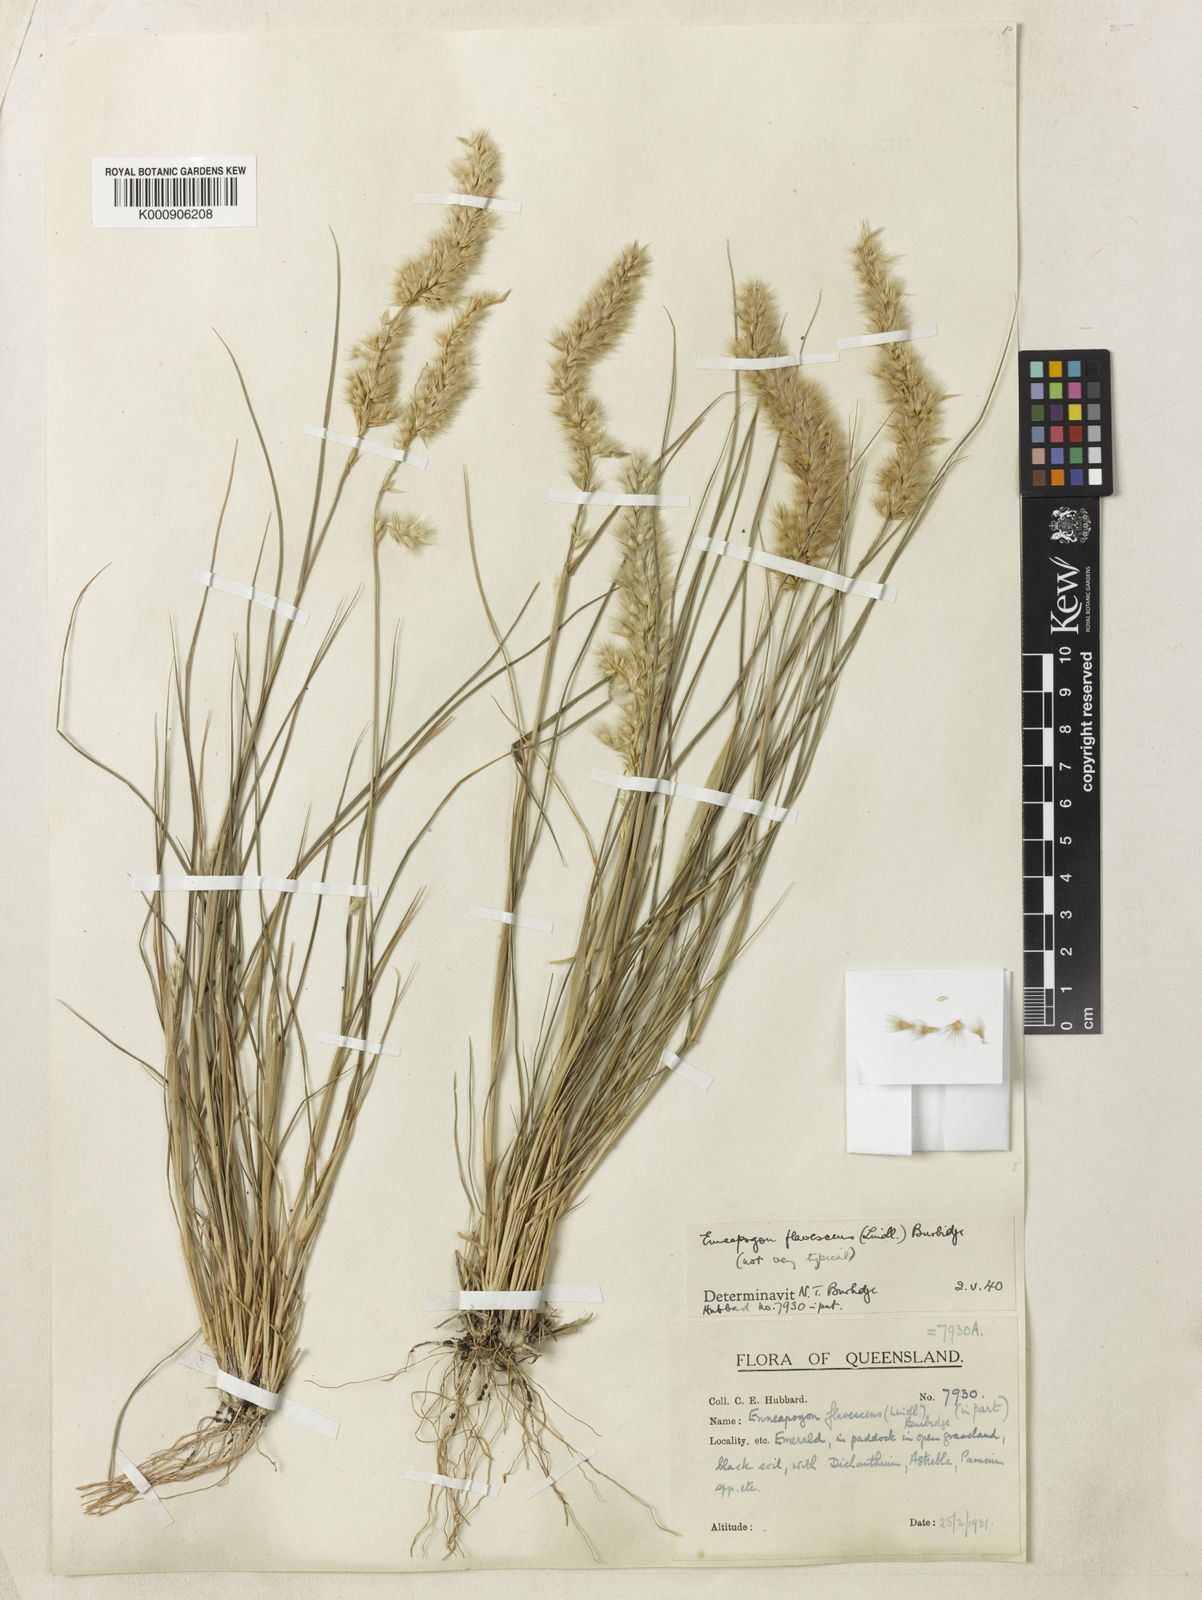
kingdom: Plantae
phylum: Tracheophyta
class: Liliopsida
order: Poales
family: Poaceae
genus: Enneapogon
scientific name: Enneapogon truncatus
